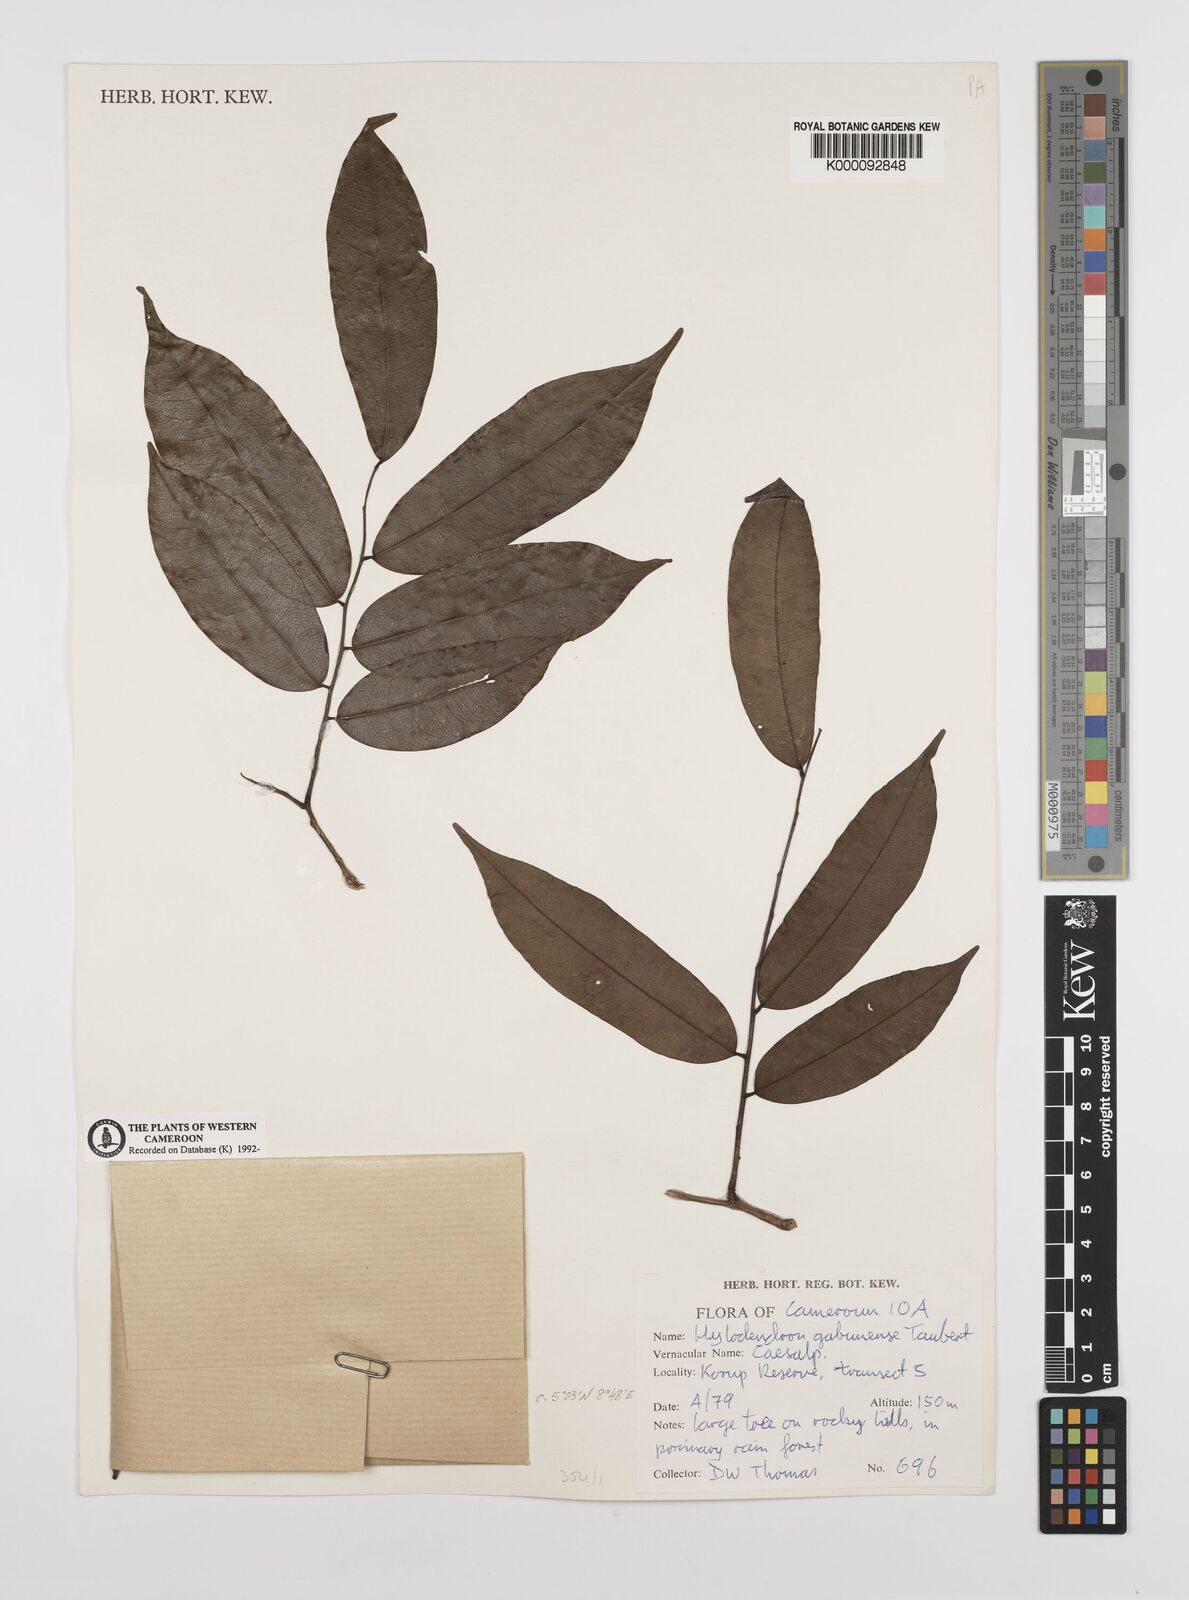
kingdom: Plantae
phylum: Tracheophyta
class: Magnoliopsida
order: Fabales
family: Fabaceae
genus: Hylodendron
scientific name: Hylodendron gabunense
